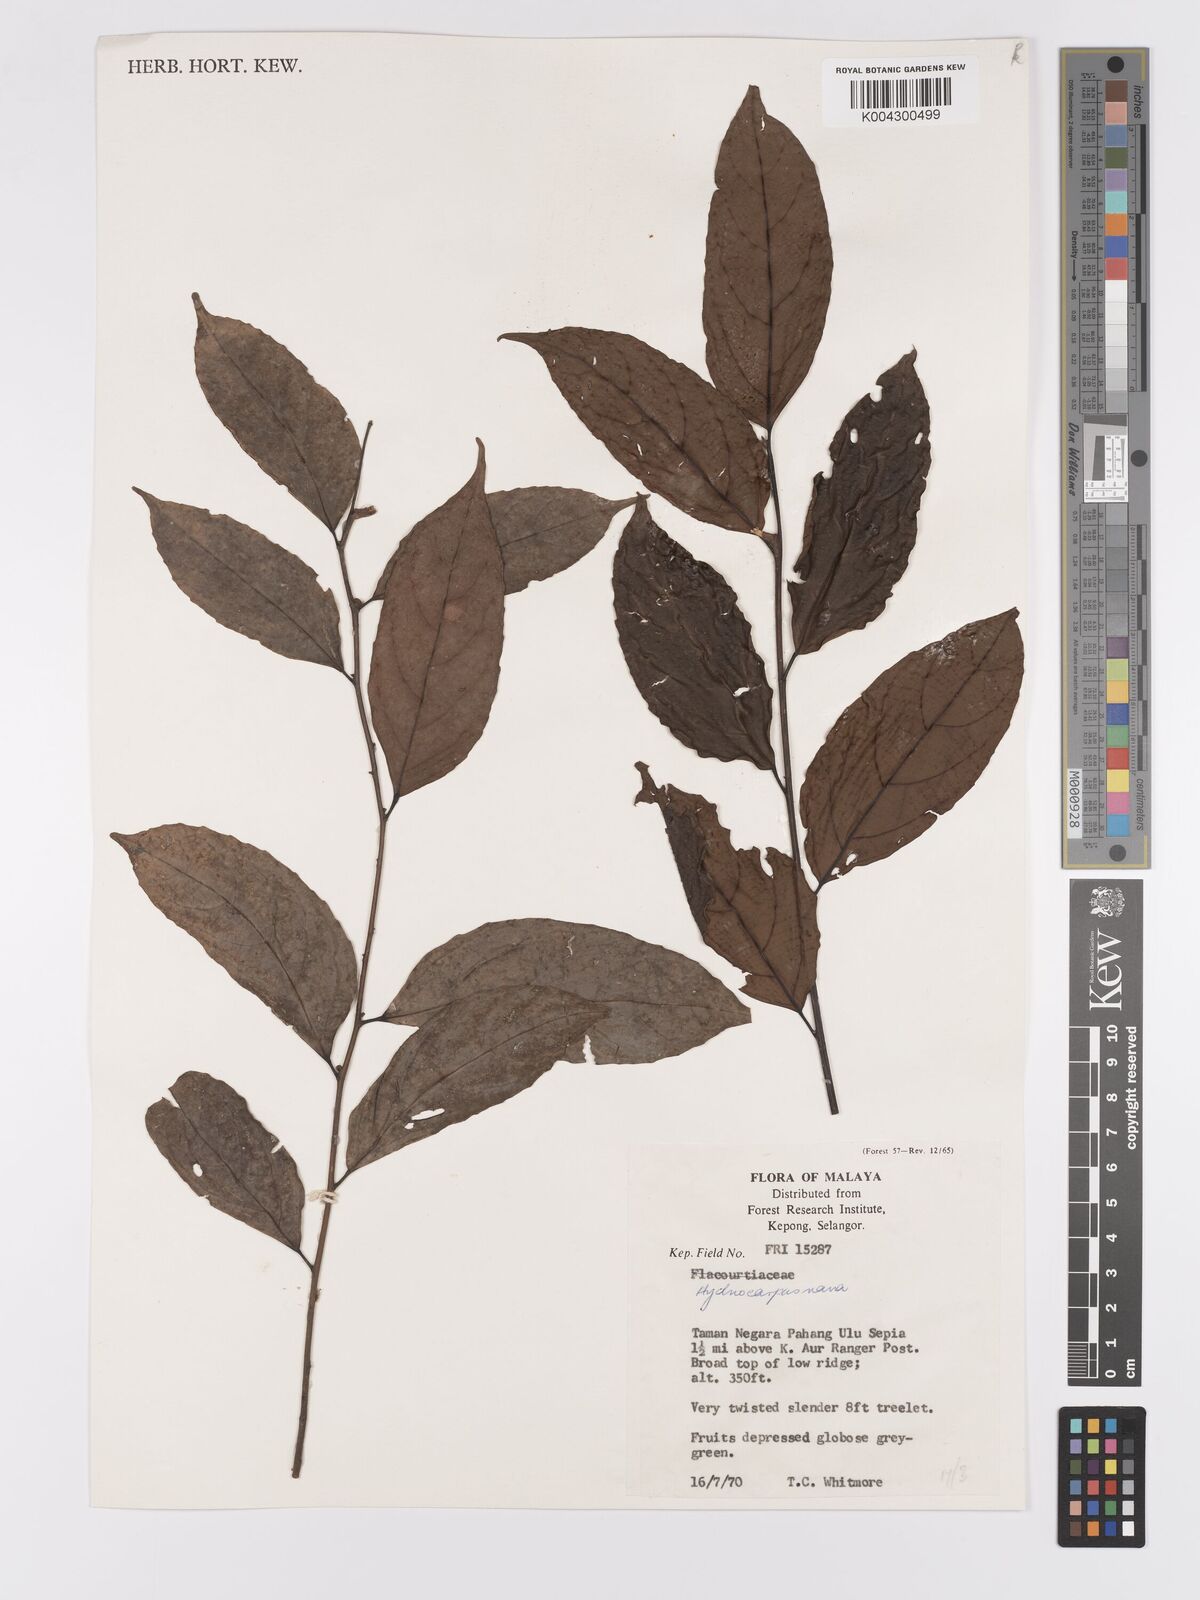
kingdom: Plantae
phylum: Tracheophyta
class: Magnoliopsida
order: Malpighiales
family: Achariaceae
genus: Hydnocarpus
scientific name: Hydnocarpus nanus
